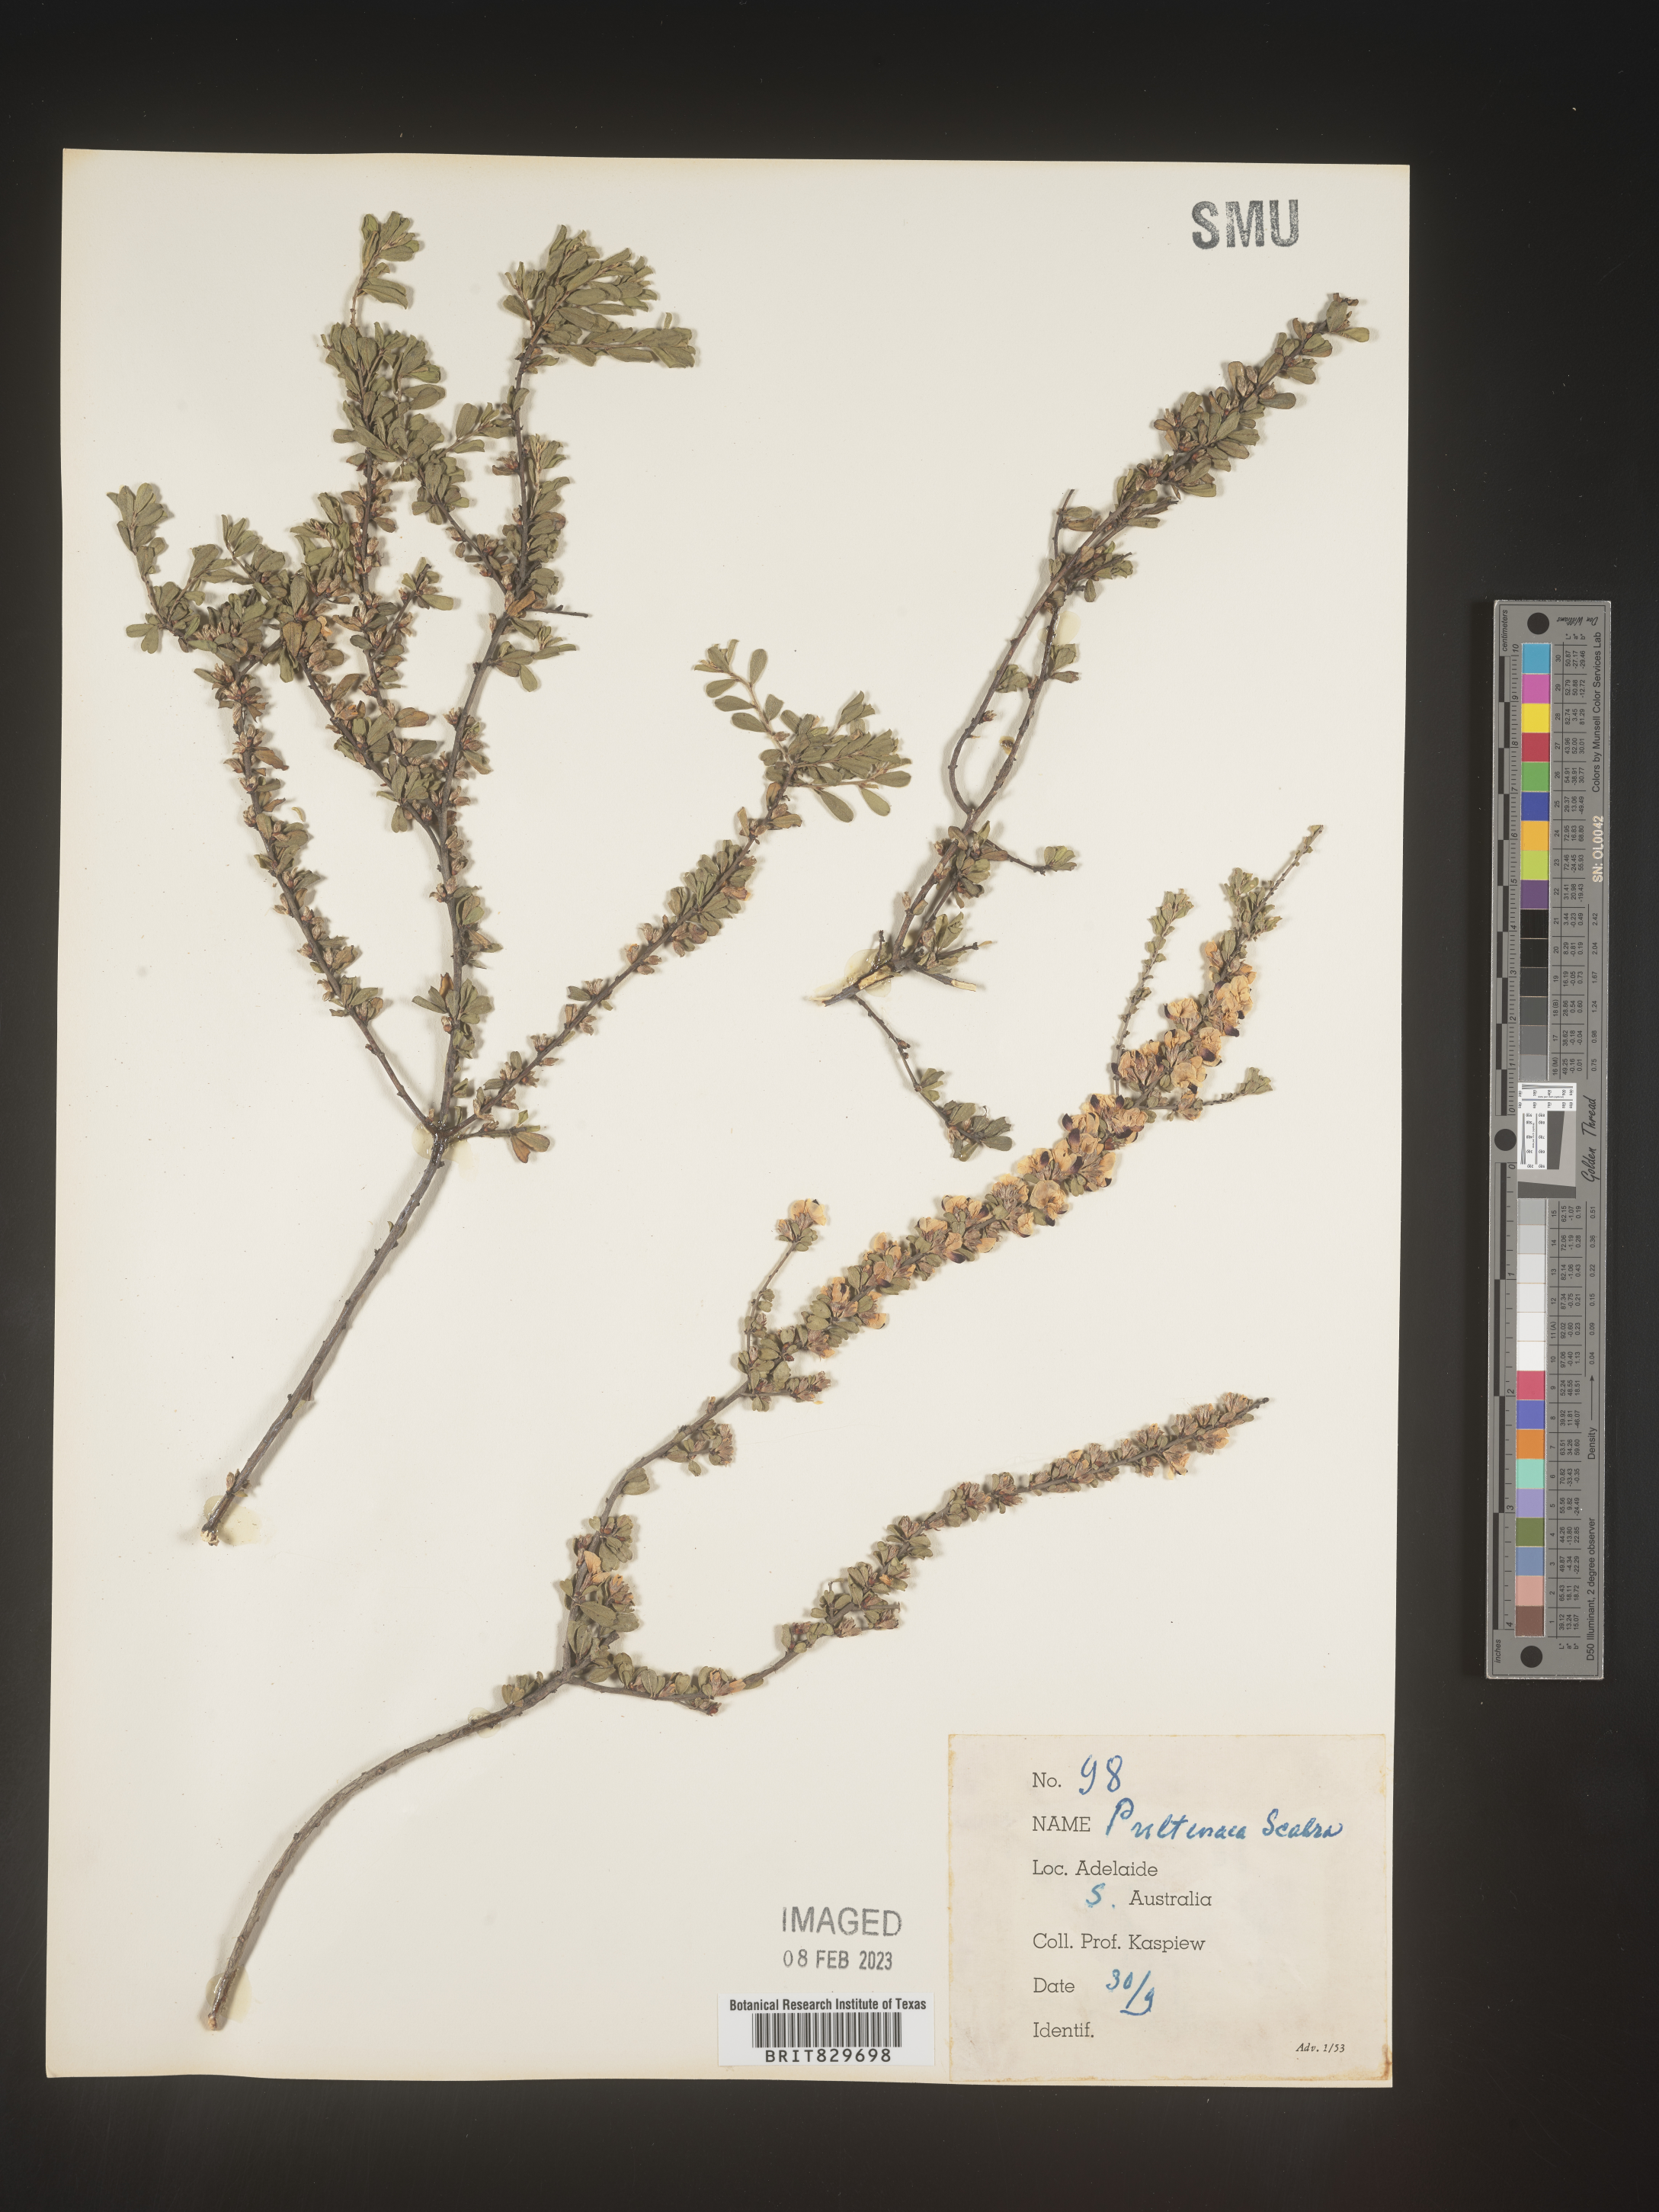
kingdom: Plantae
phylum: Tracheophyta
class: Magnoliopsida
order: Fabales
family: Fabaceae
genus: Pultenaea
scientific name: Pultenaea
